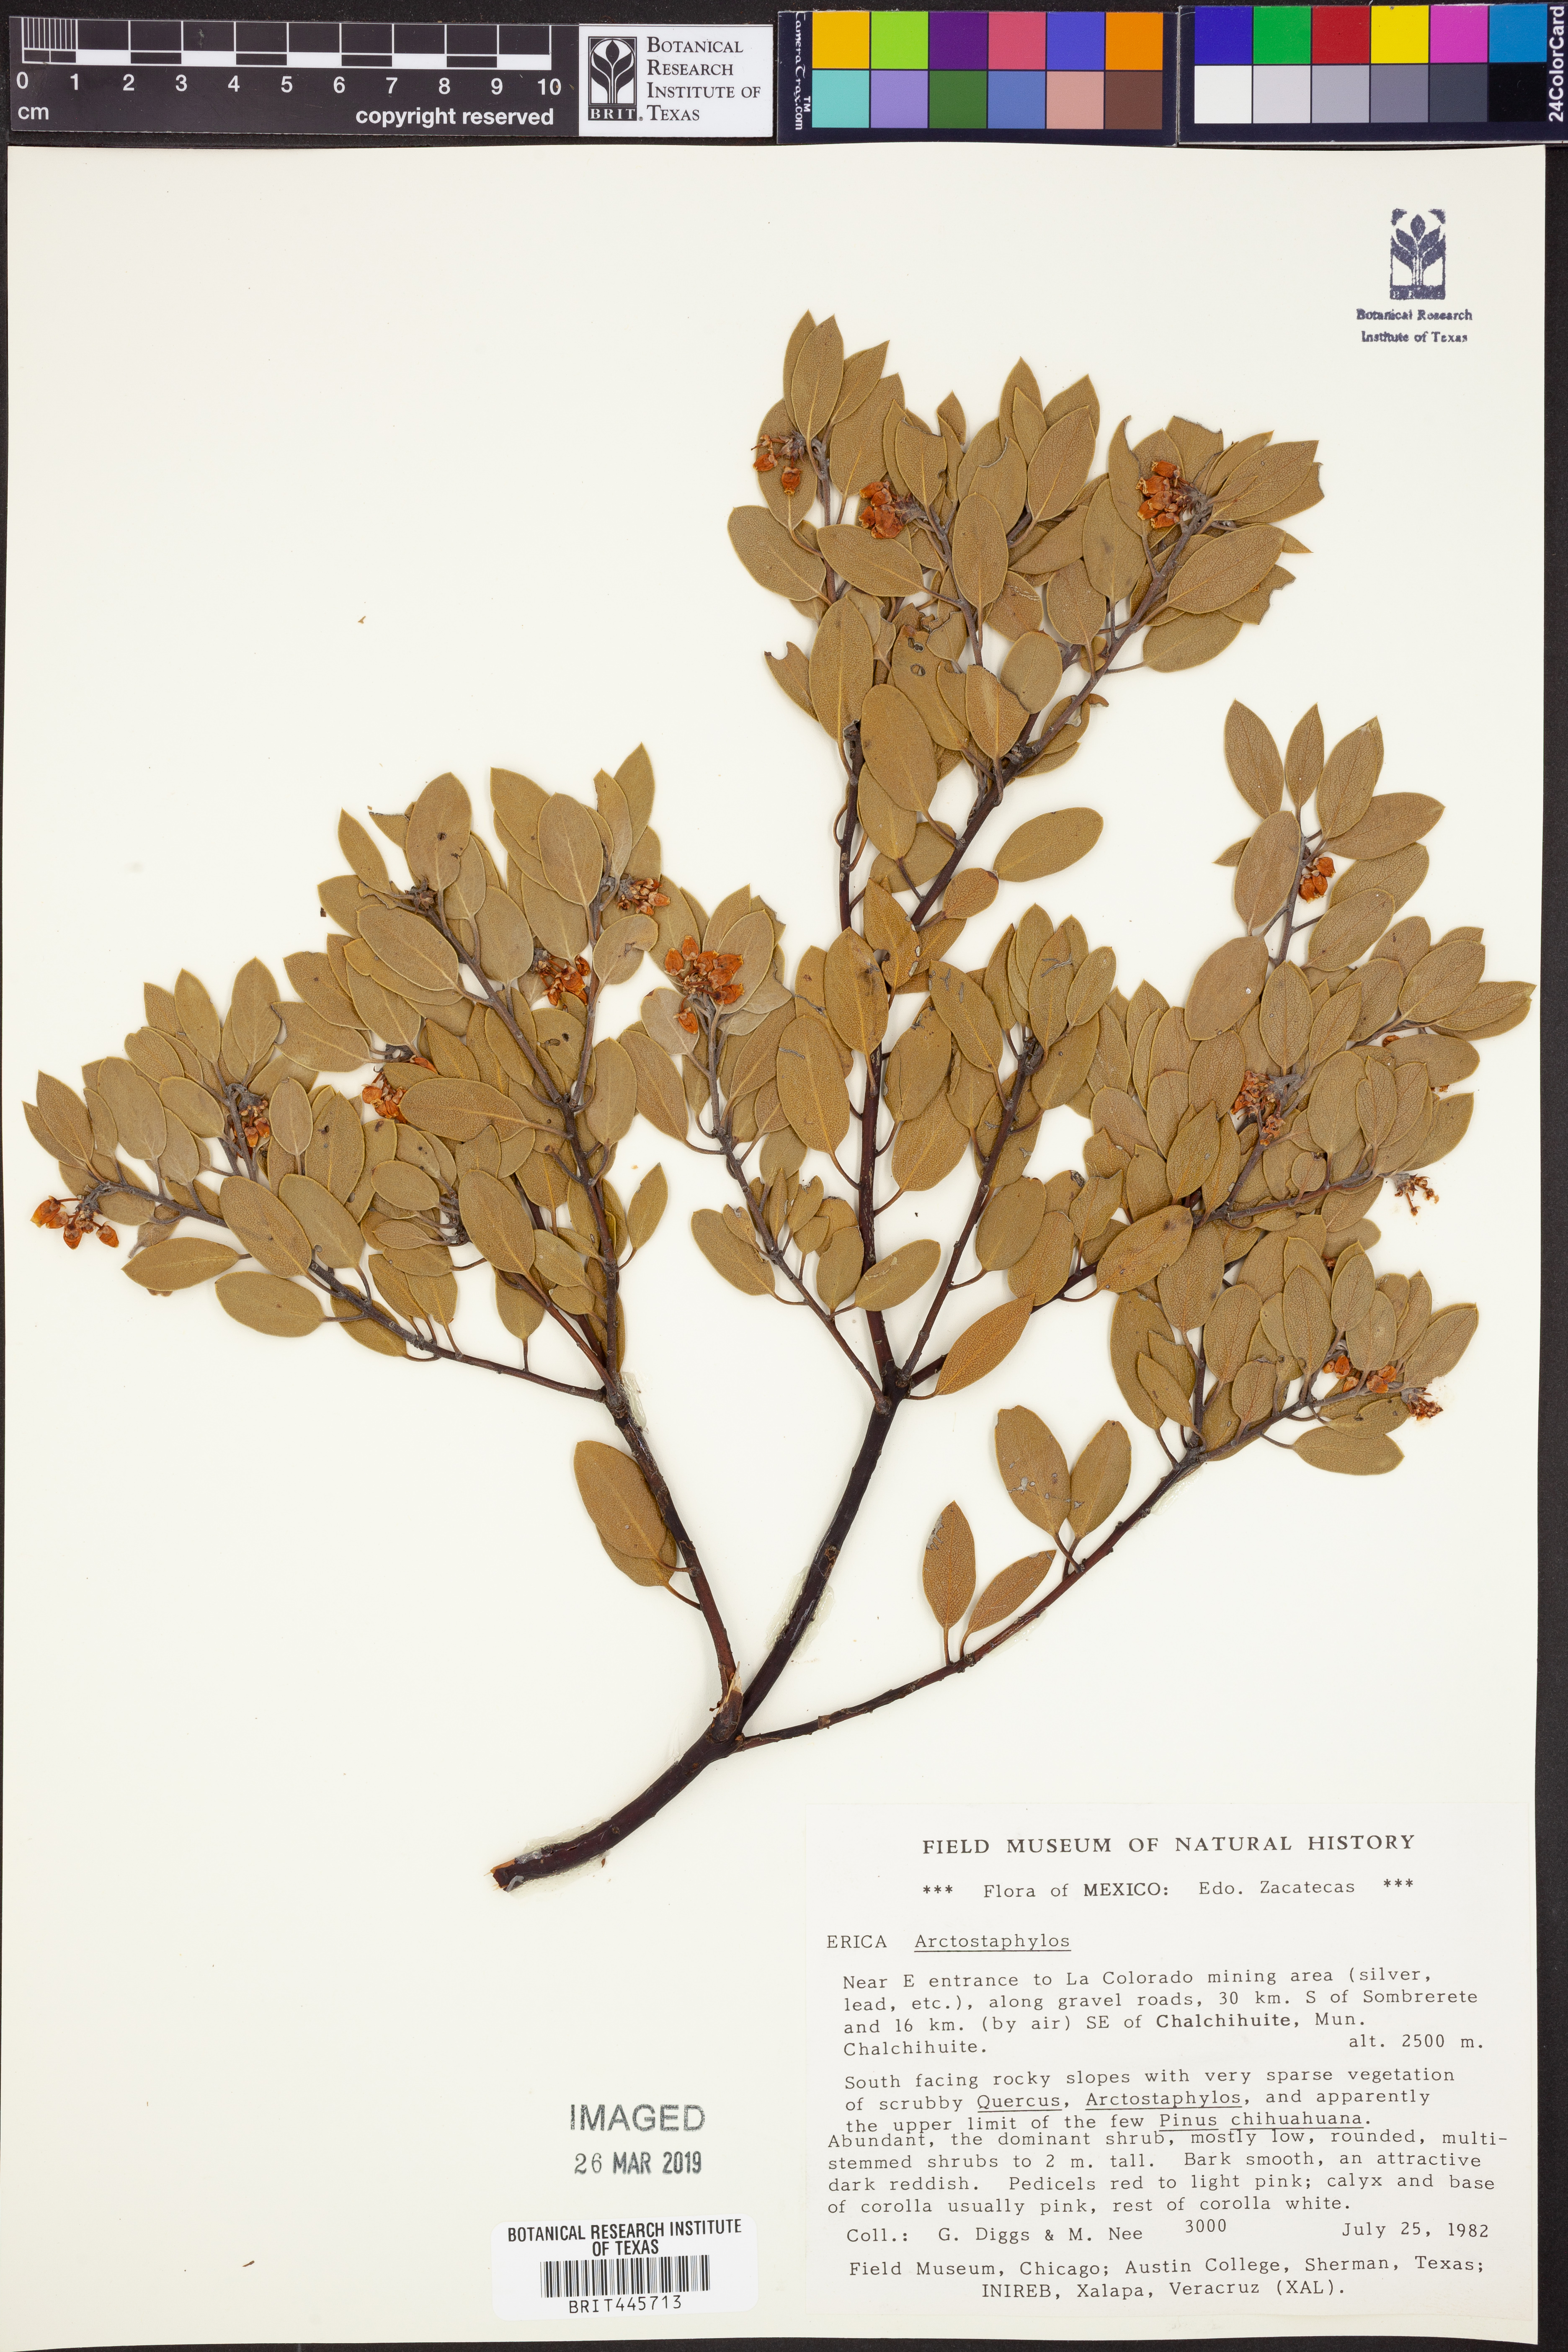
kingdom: Plantae
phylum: Tracheophyta
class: Magnoliopsida
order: Ericales
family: Ericaceae
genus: Arctostaphylos
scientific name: Arctostaphylos
